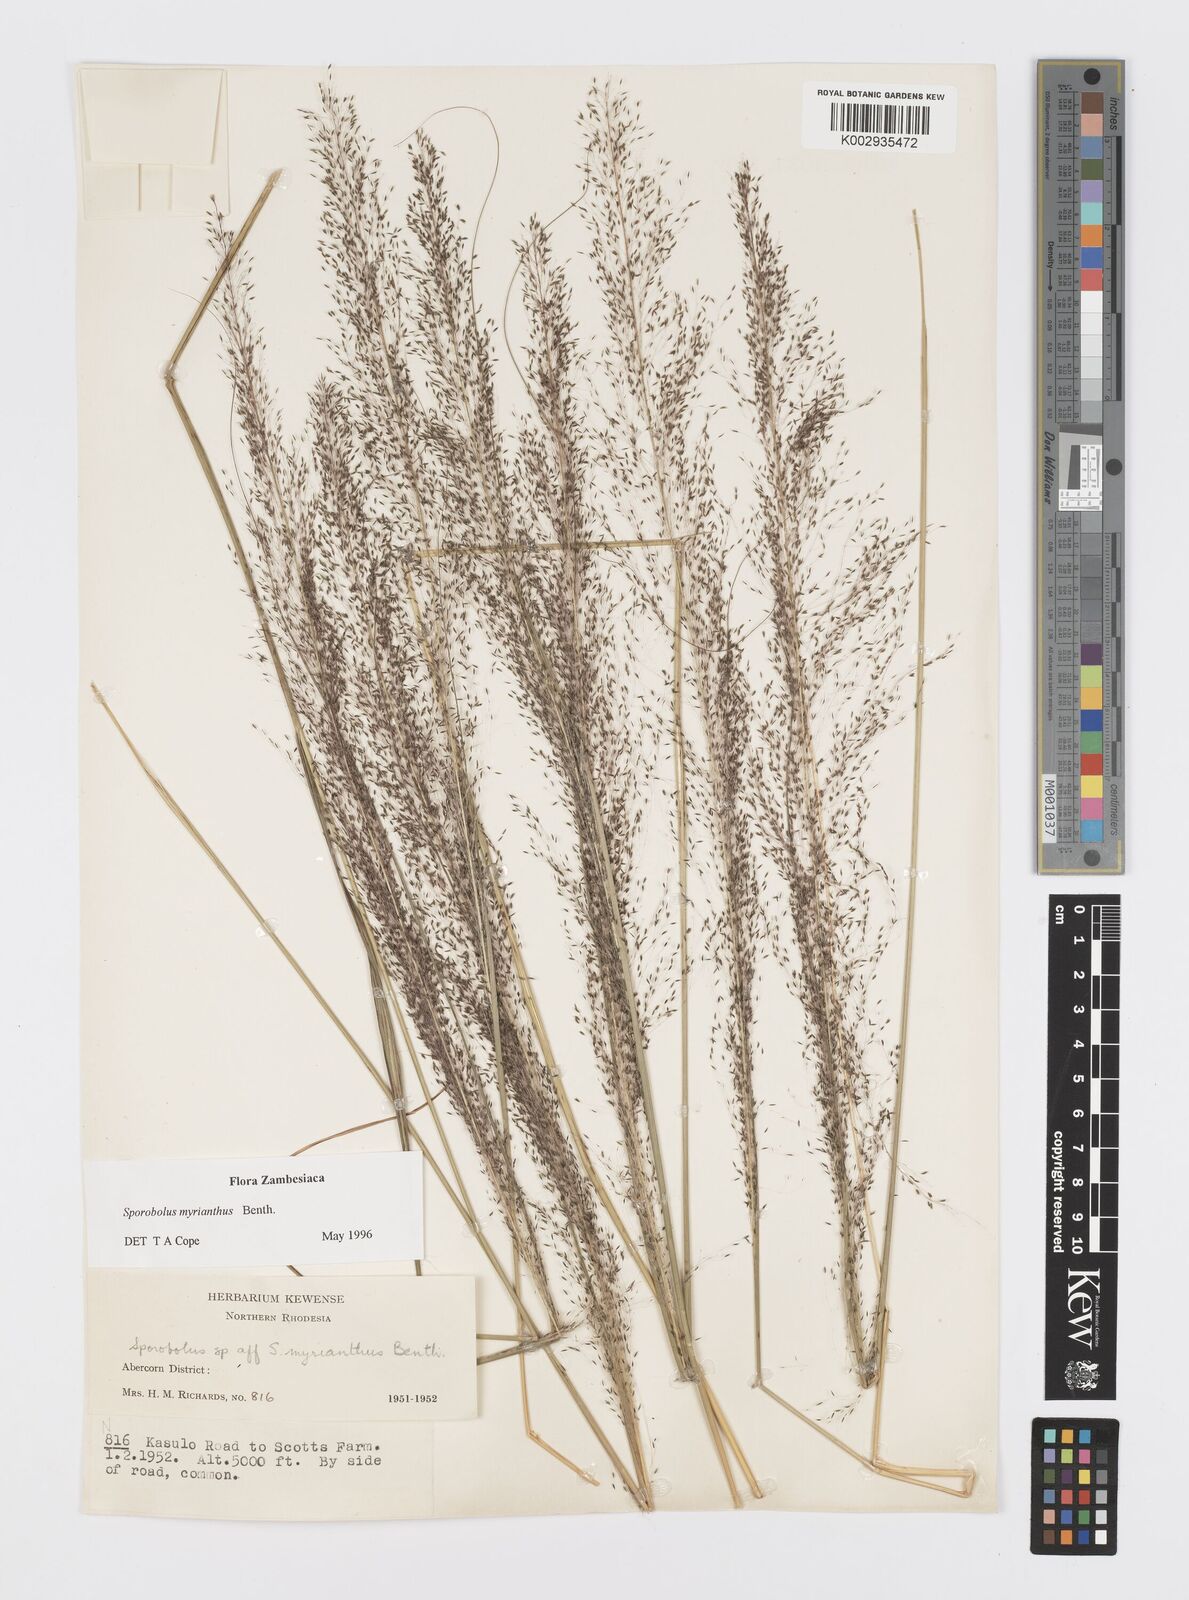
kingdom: Plantae
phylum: Tracheophyta
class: Liliopsida
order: Poales
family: Poaceae
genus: Sporobolus
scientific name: Sporobolus myrianthus
